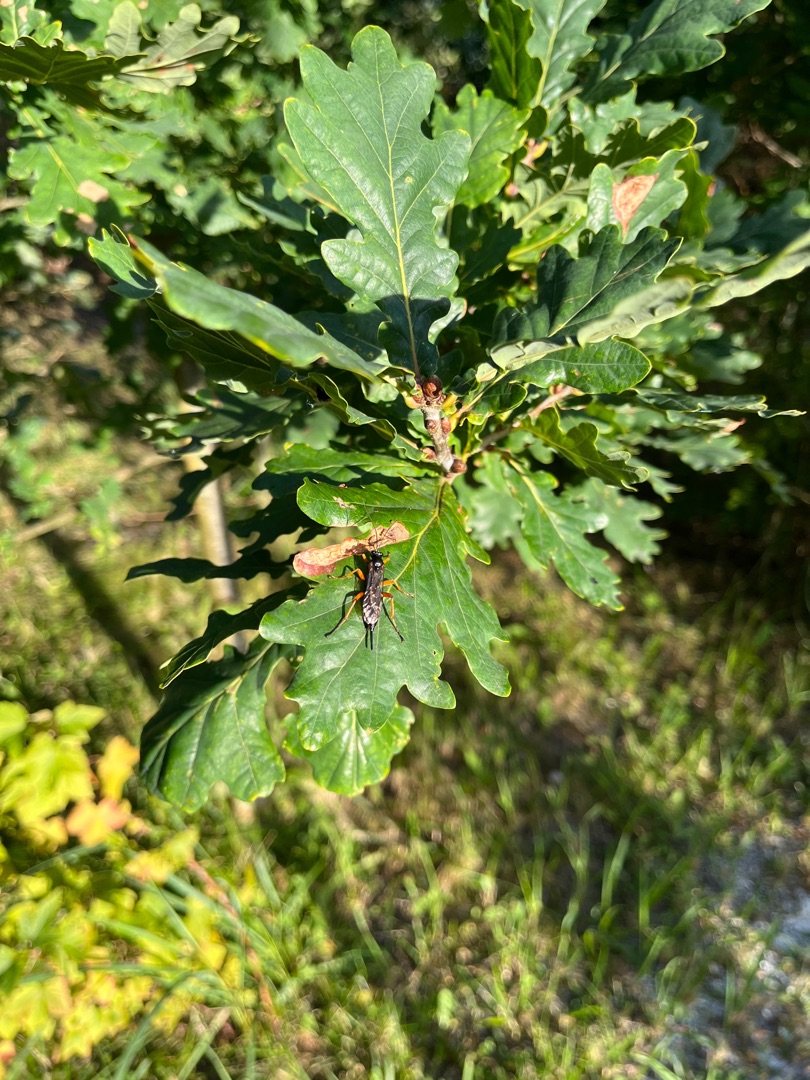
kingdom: Animalia
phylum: Arthropoda
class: Insecta
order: Hymenoptera
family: Ichneumonidae
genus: Pimpla
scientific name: Pimpla rufipes
